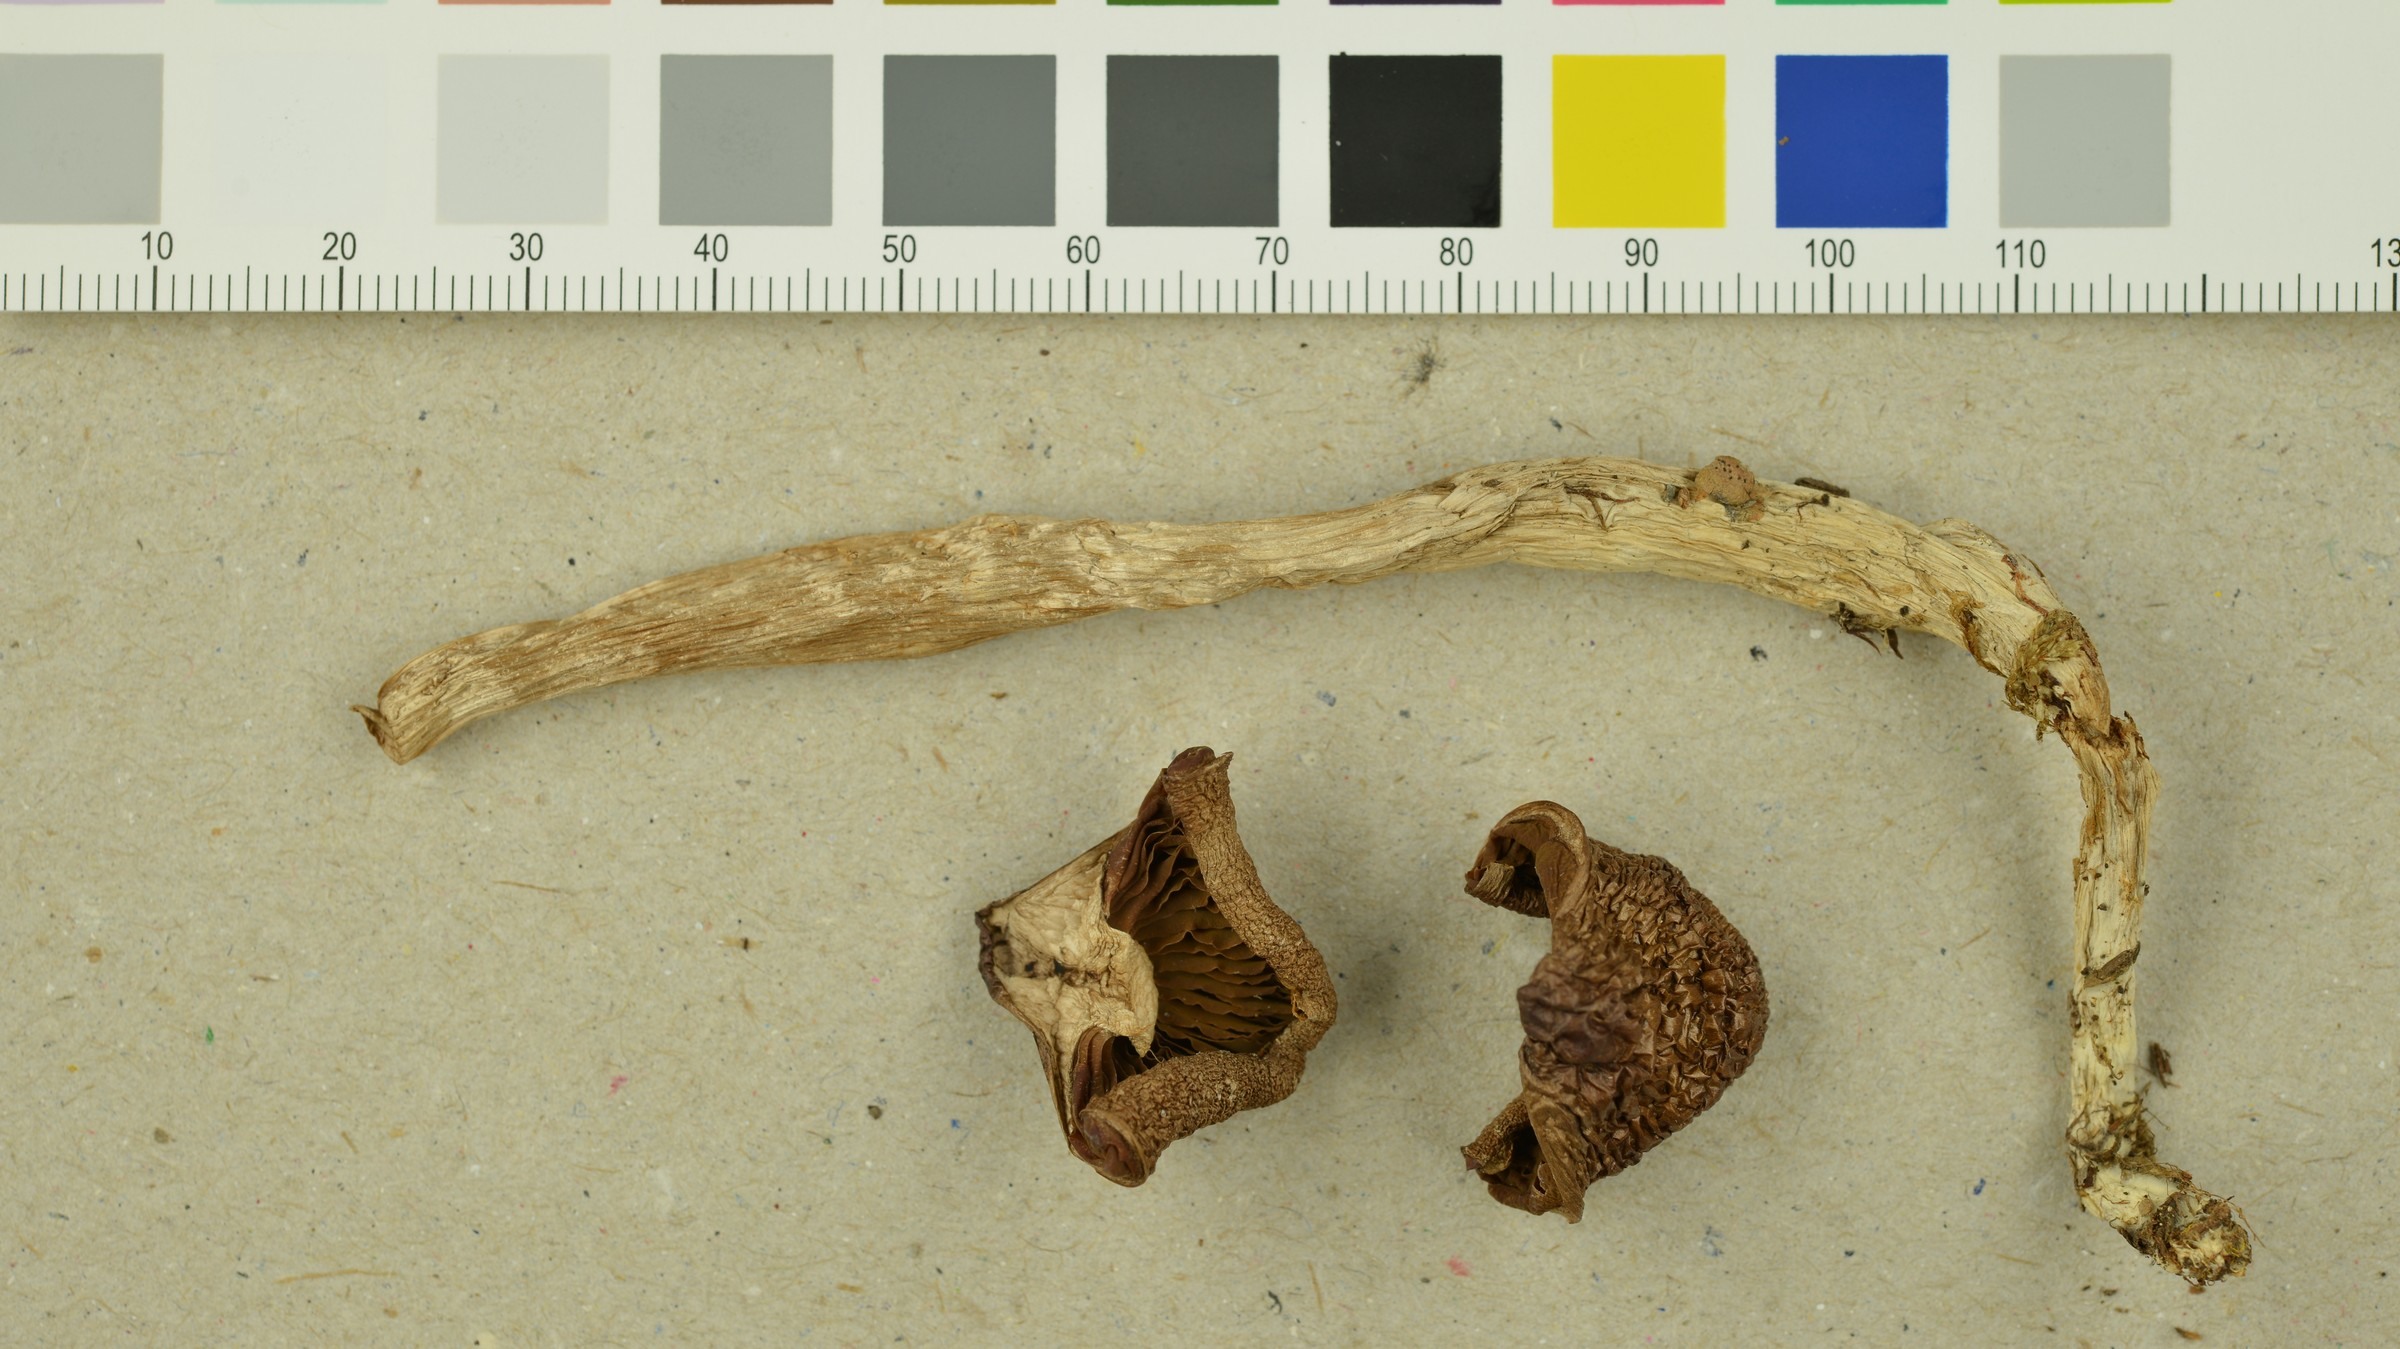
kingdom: Fungi
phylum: Basidiomycota
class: Agaricomycetes
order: Agaricales
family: Cortinariaceae
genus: Cortinarius
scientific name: Cortinarius biformis
